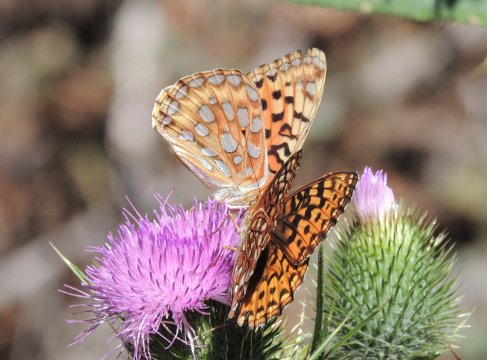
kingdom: Animalia
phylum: Arthropoda
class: Insecta
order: Lepidoptera
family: Nymphalidae
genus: Speyeria
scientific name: Speyeria coronis
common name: Coronis Fritillary
